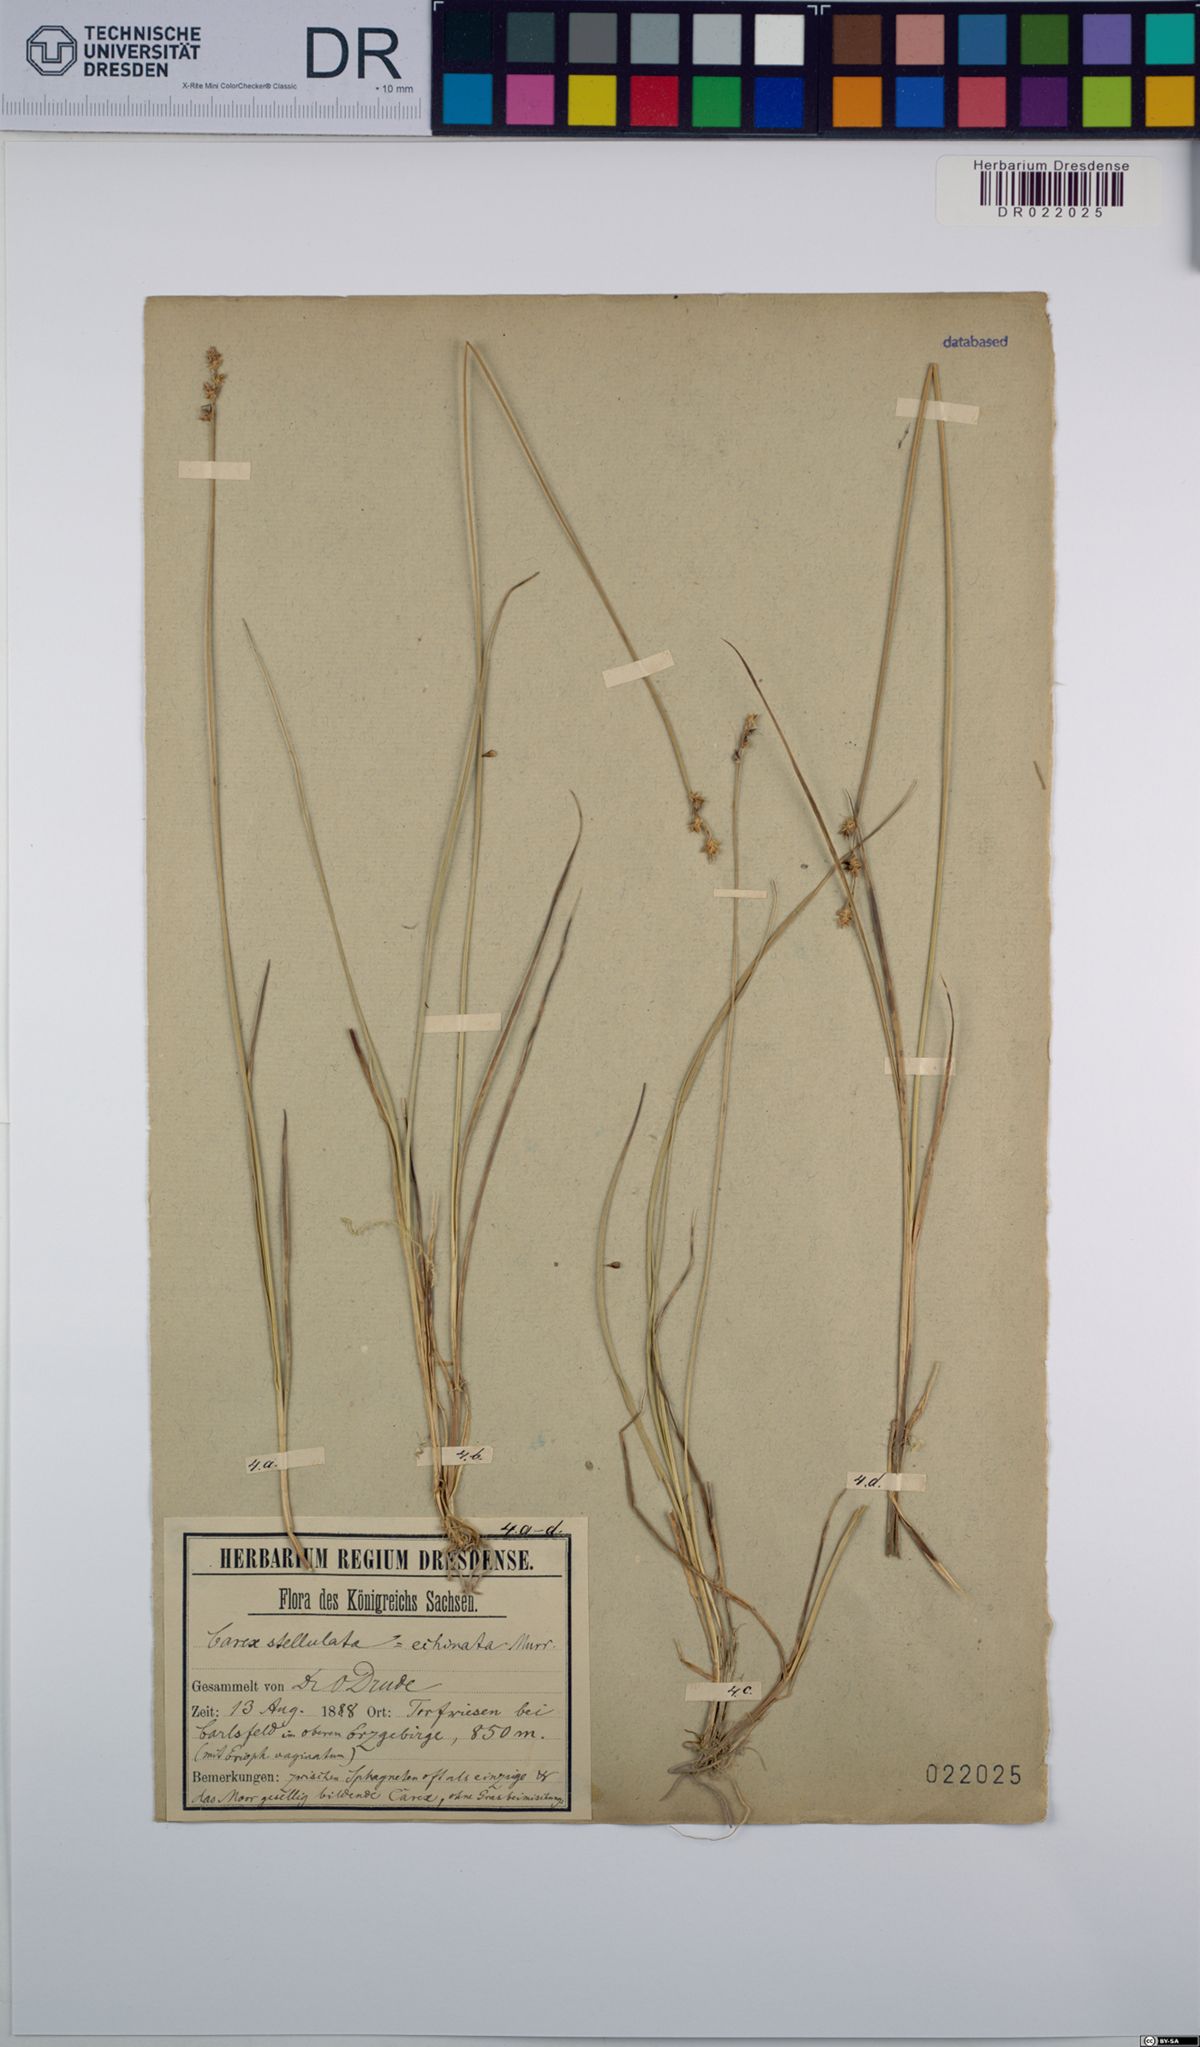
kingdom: Plantae
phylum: Tracheophyta
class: Liliopsida
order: Poales
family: Cyperaceae
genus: Carex
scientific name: Carex echinata
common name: Star sedge
